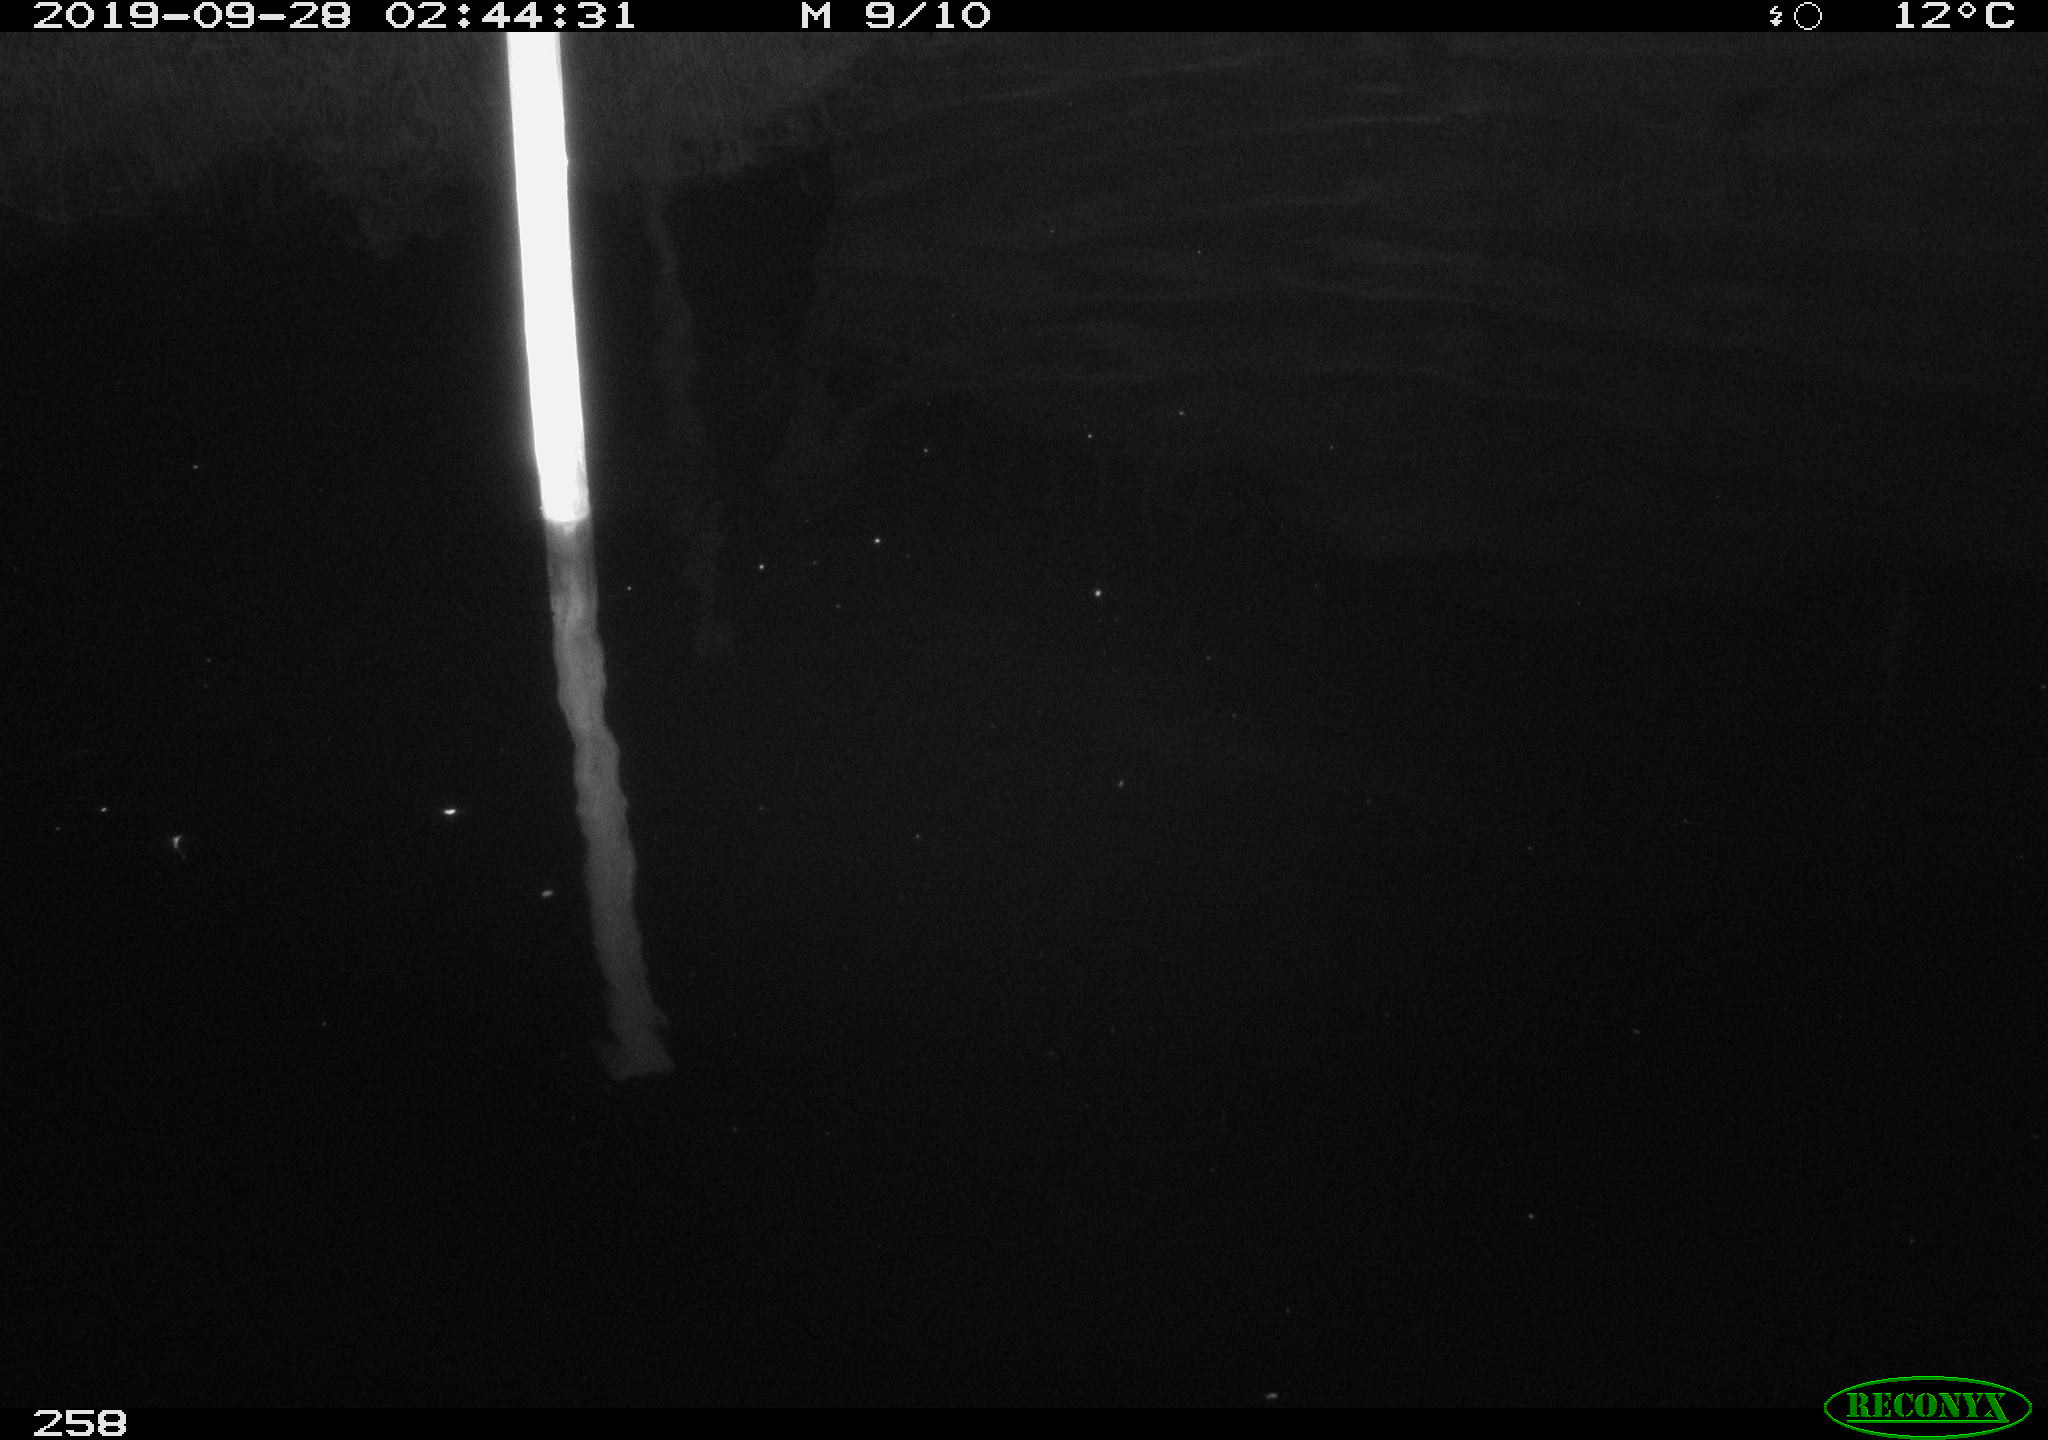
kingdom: Animalia
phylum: Chordata
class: Aves
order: Anseriformes
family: Anatidae
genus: Anas
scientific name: Anas platyrhynchos
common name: Mallard
